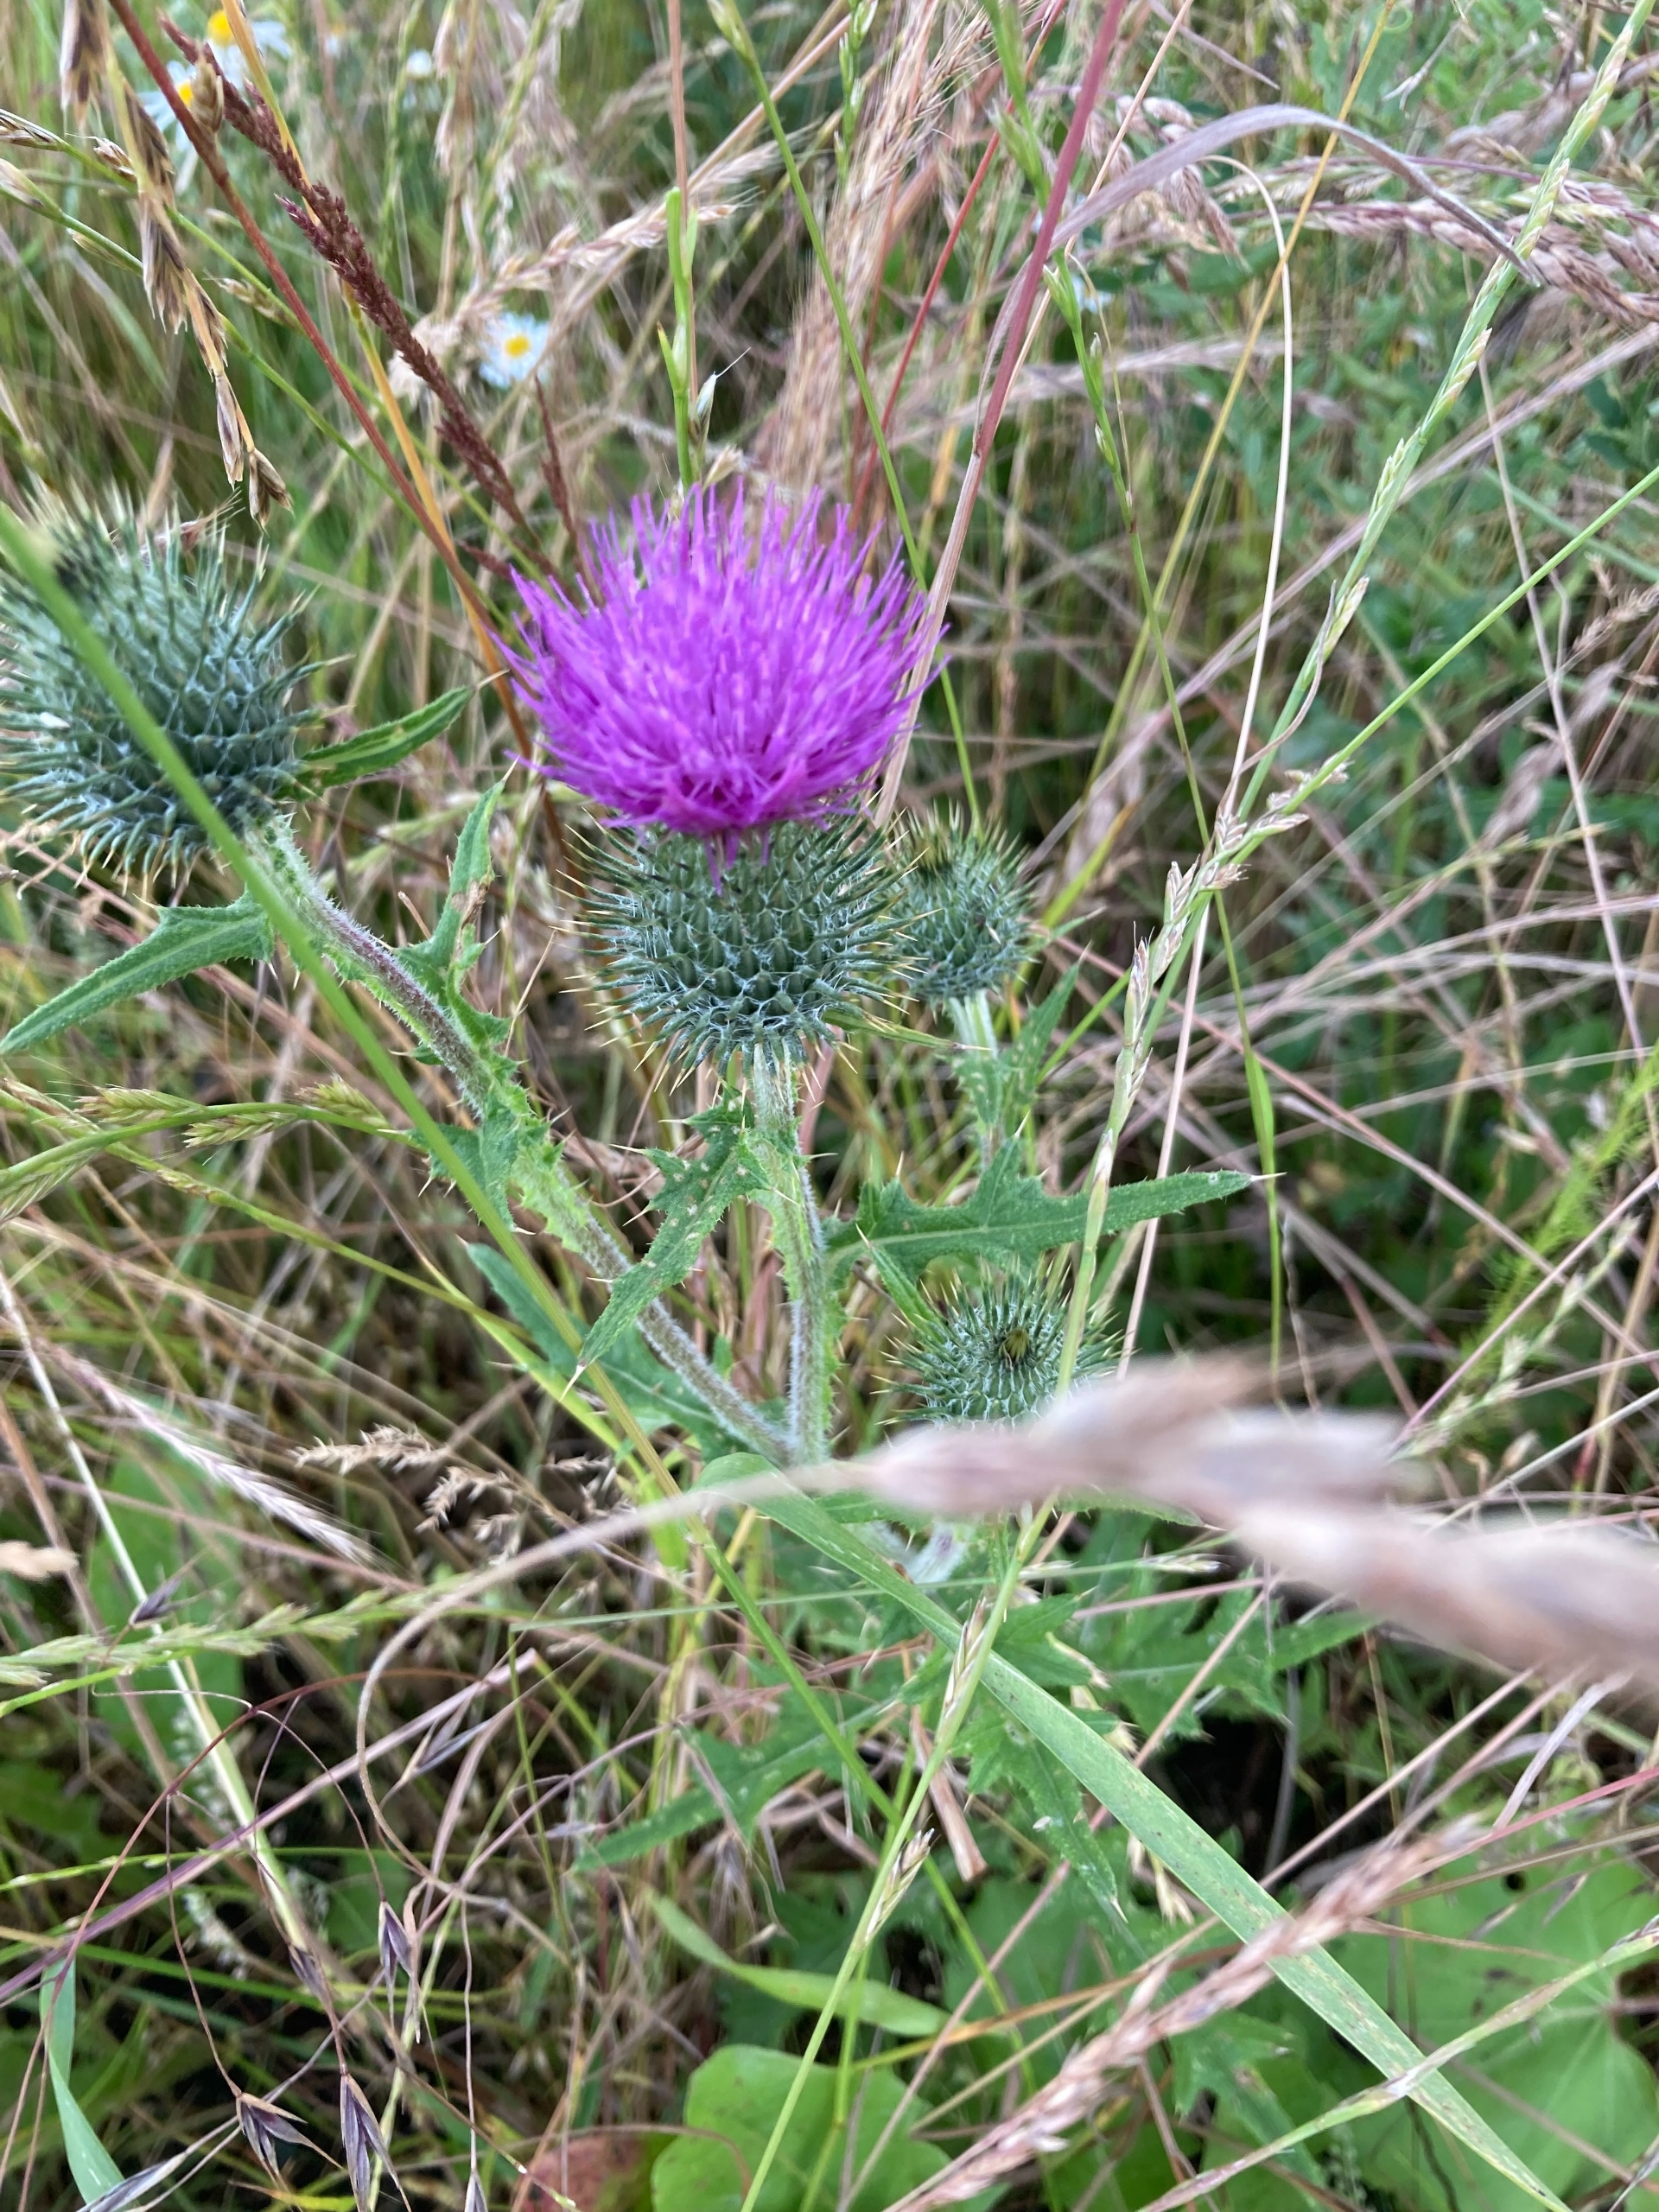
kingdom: Plantae
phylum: Tracheophyta
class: Magnoliopsida
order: Asterales
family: Asteraceae
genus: Cirsium
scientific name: Cirsium vulgare
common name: Horse-tidsel
